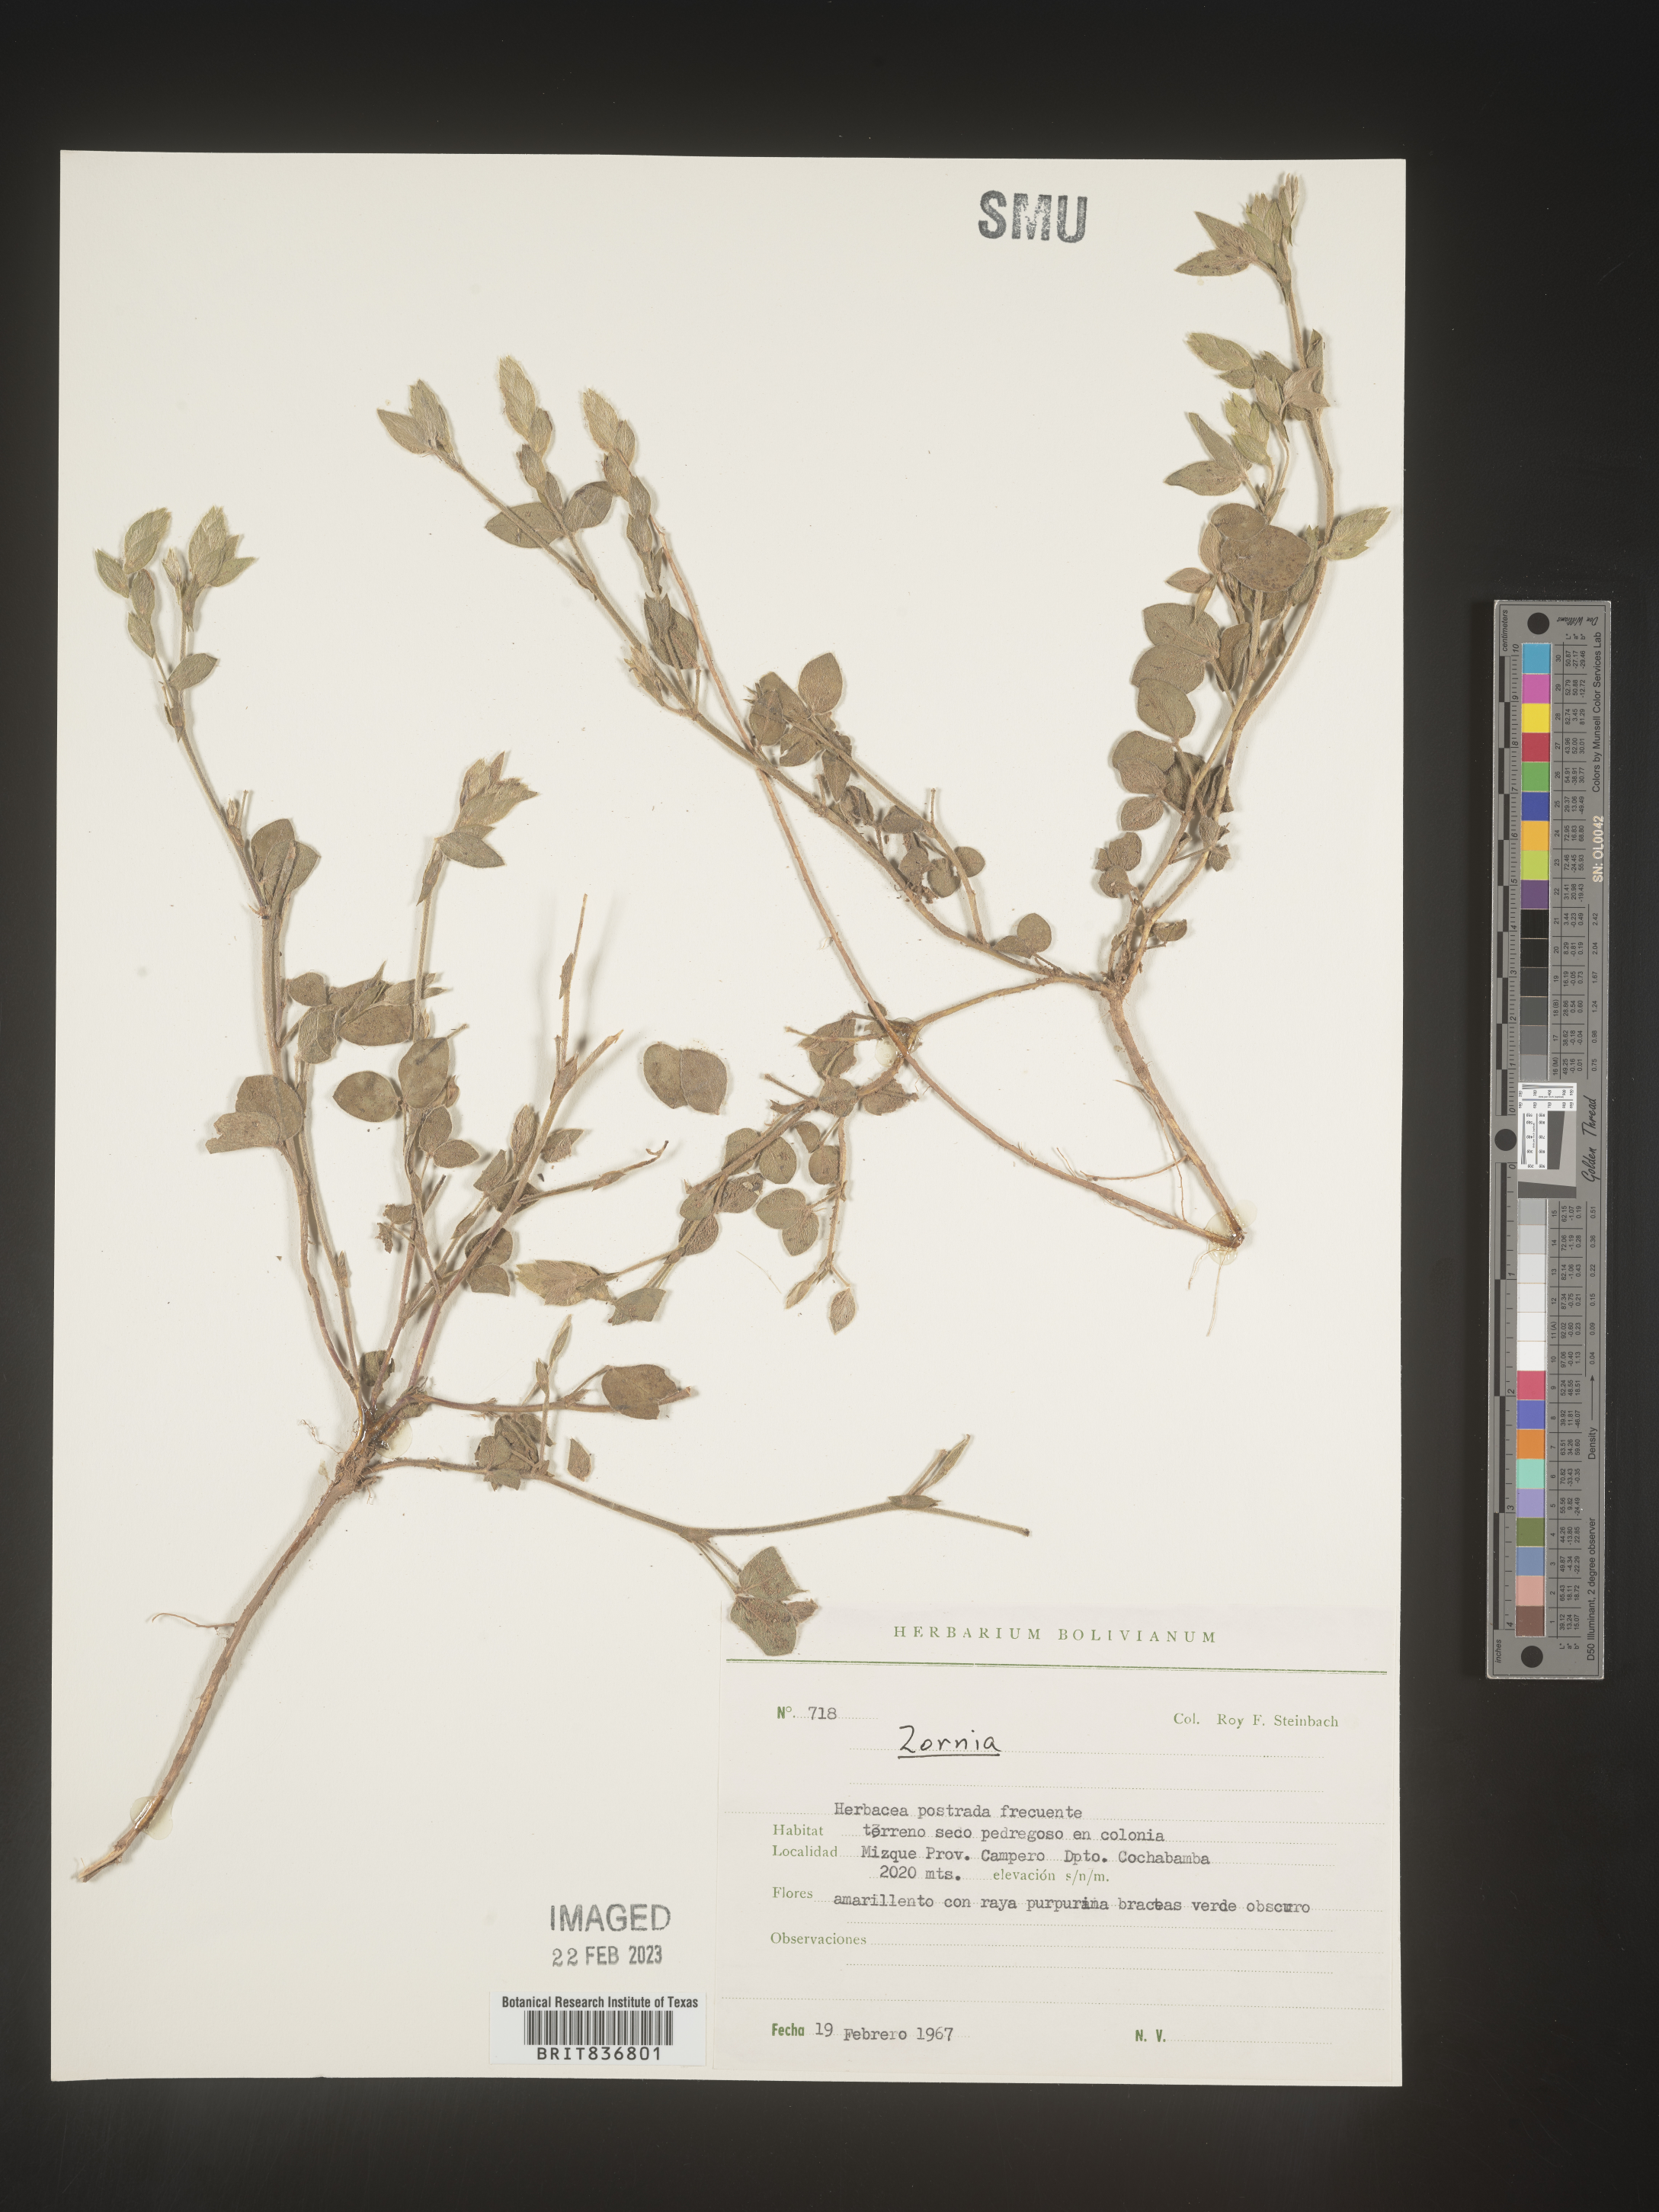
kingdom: Plantae
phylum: Tracheophyta
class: Magnoliopsida
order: Fabales
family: Fabaceae
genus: Zornia
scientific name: Zornia
